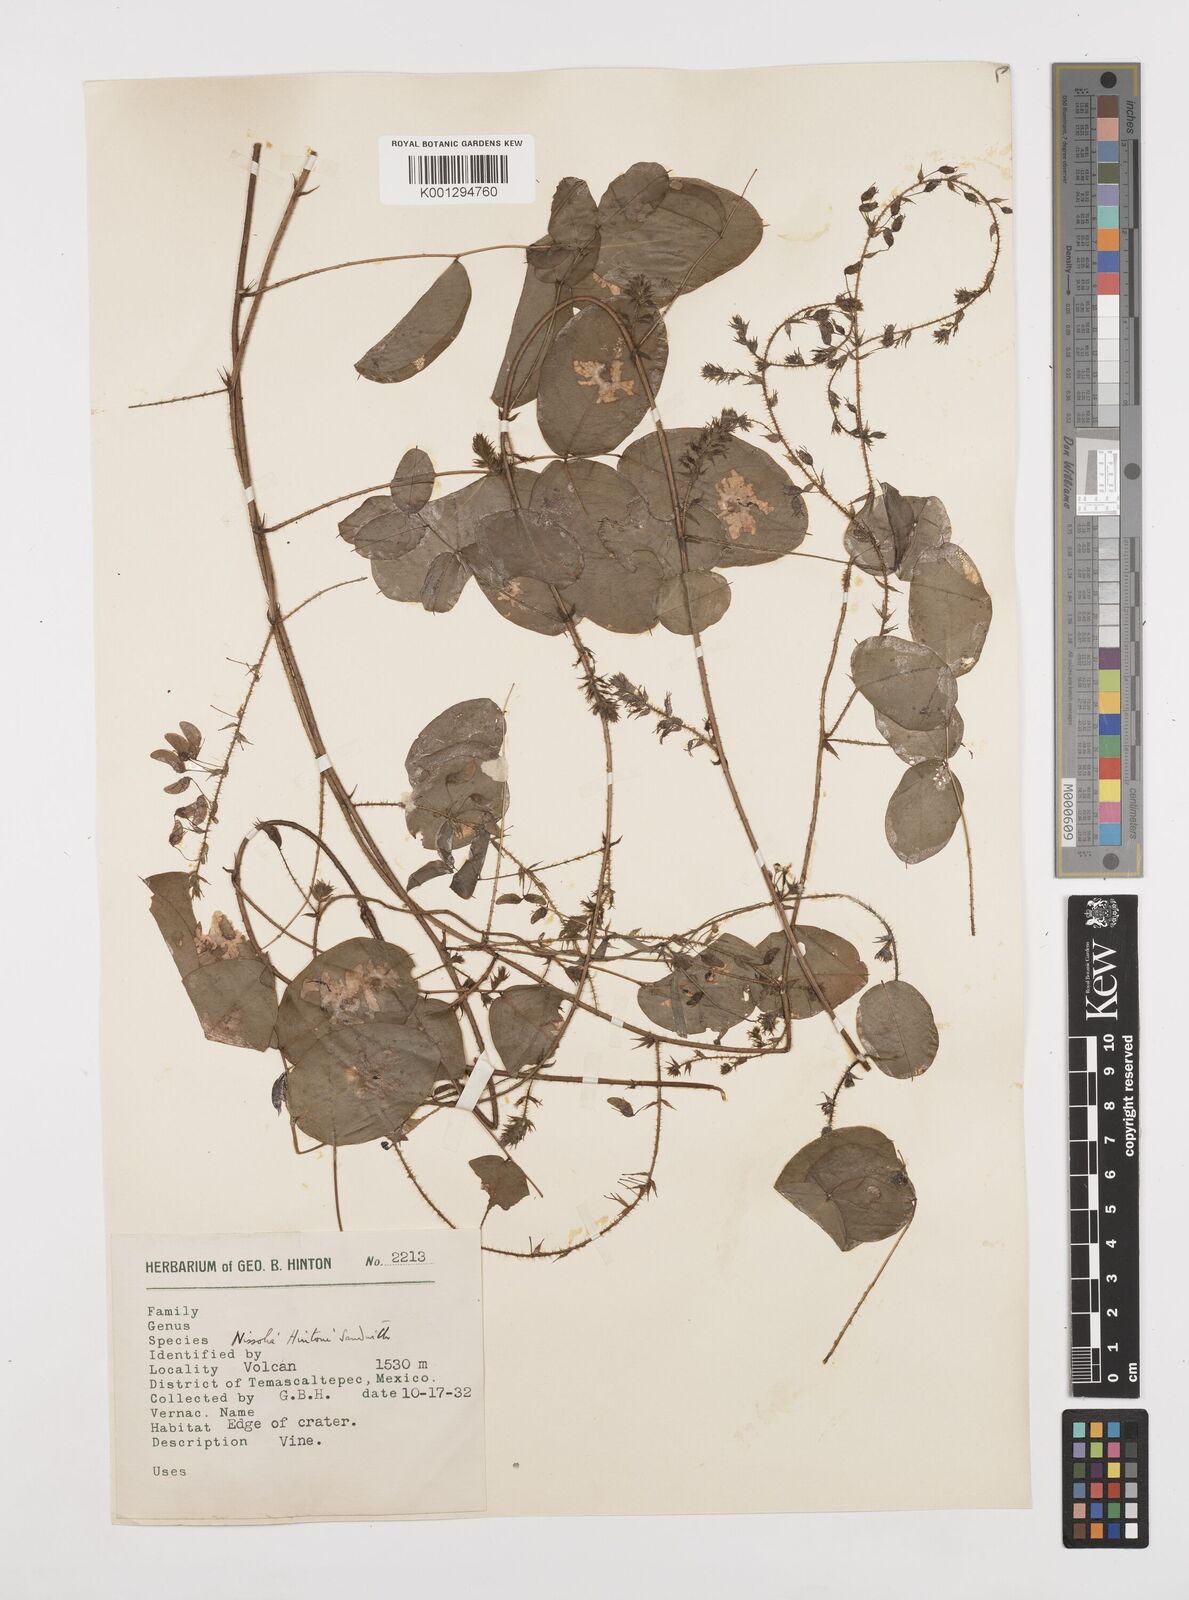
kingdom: Plantae
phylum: Tracheophyta
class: Magnoliopsida
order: Fabales
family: Fabaceae
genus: Nissolia
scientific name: Nissolia hintonii
